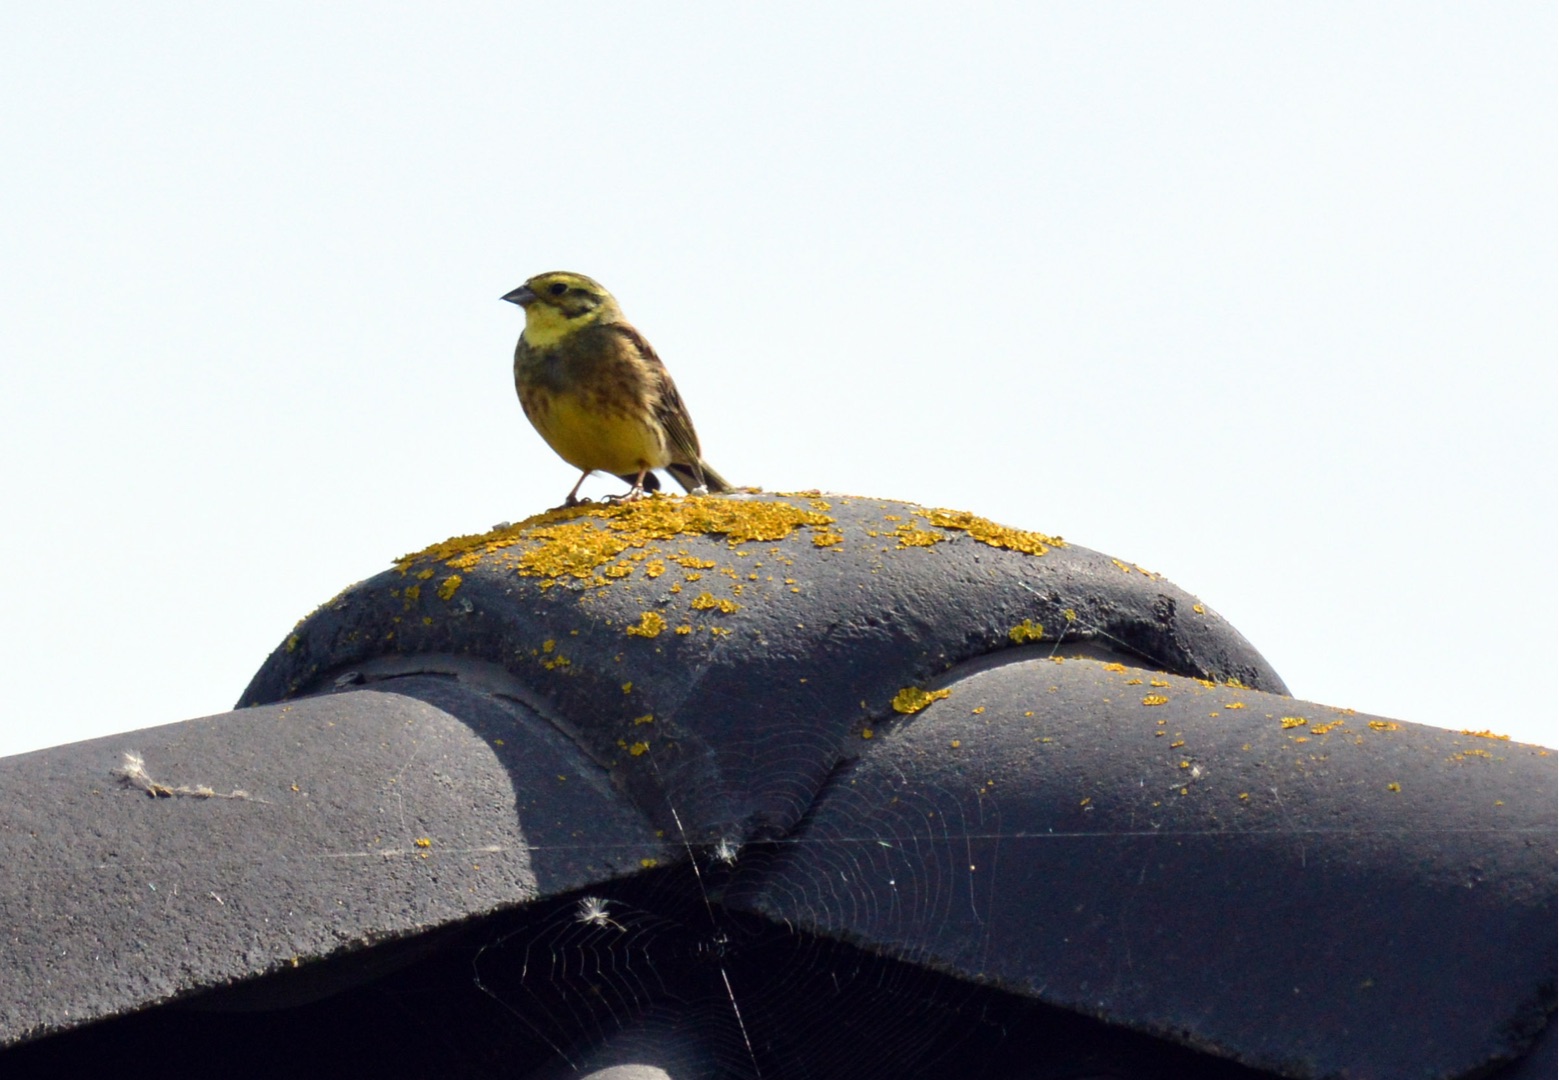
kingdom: Animalia
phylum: Chordata
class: Aves
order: Passeriformes
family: Emberizidae
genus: Emberiza
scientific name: Emberiza citrinella
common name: Gulspurv
